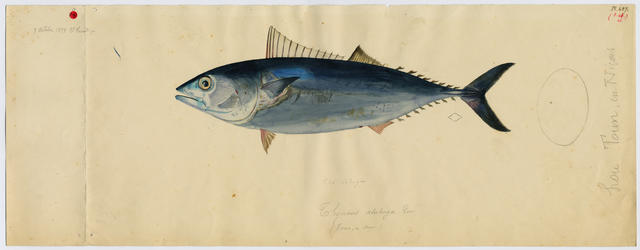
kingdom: Animalia
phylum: Chordata
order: Perciformes
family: Scombridae
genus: Orcynopsis
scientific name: Orcynopsis unicolor
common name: Plain bonito
